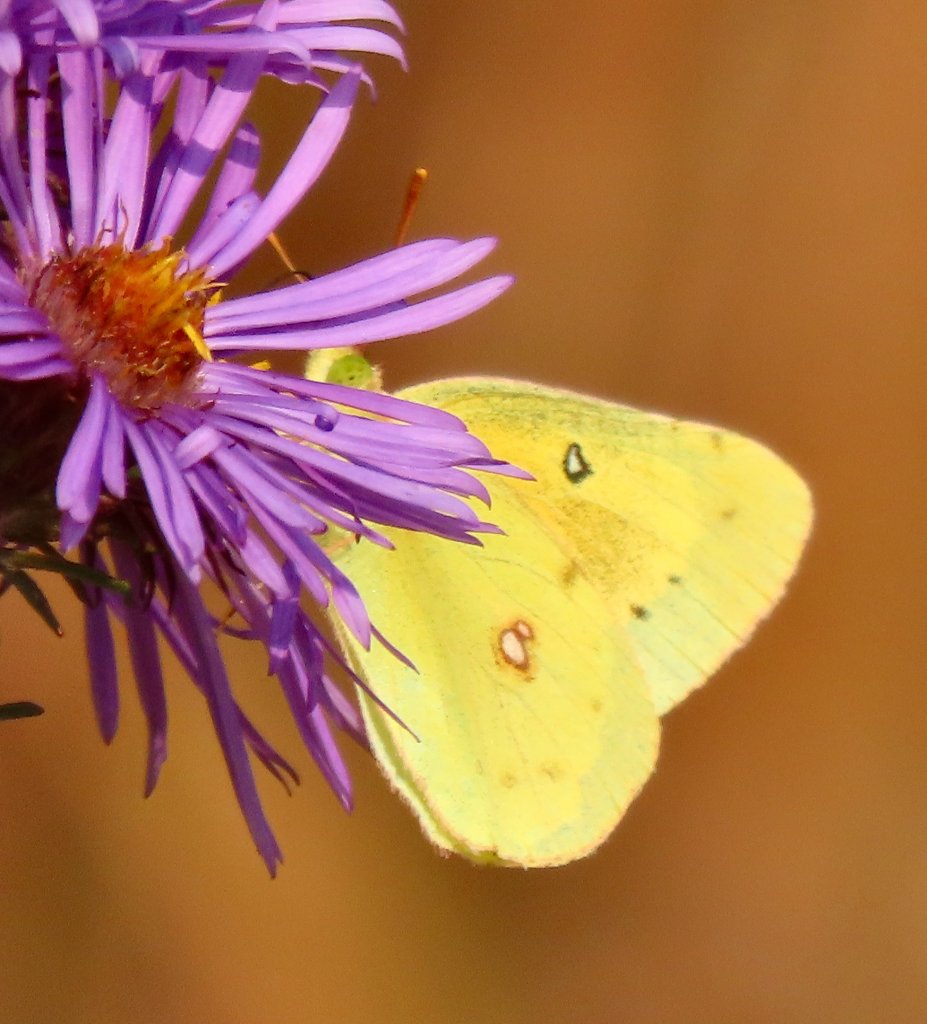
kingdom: Animalia
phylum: Arthropoda
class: Insecta
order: Lepidoptera
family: Pieridae
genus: Colias
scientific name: Colias eurytheme
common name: Orange Sulphur
